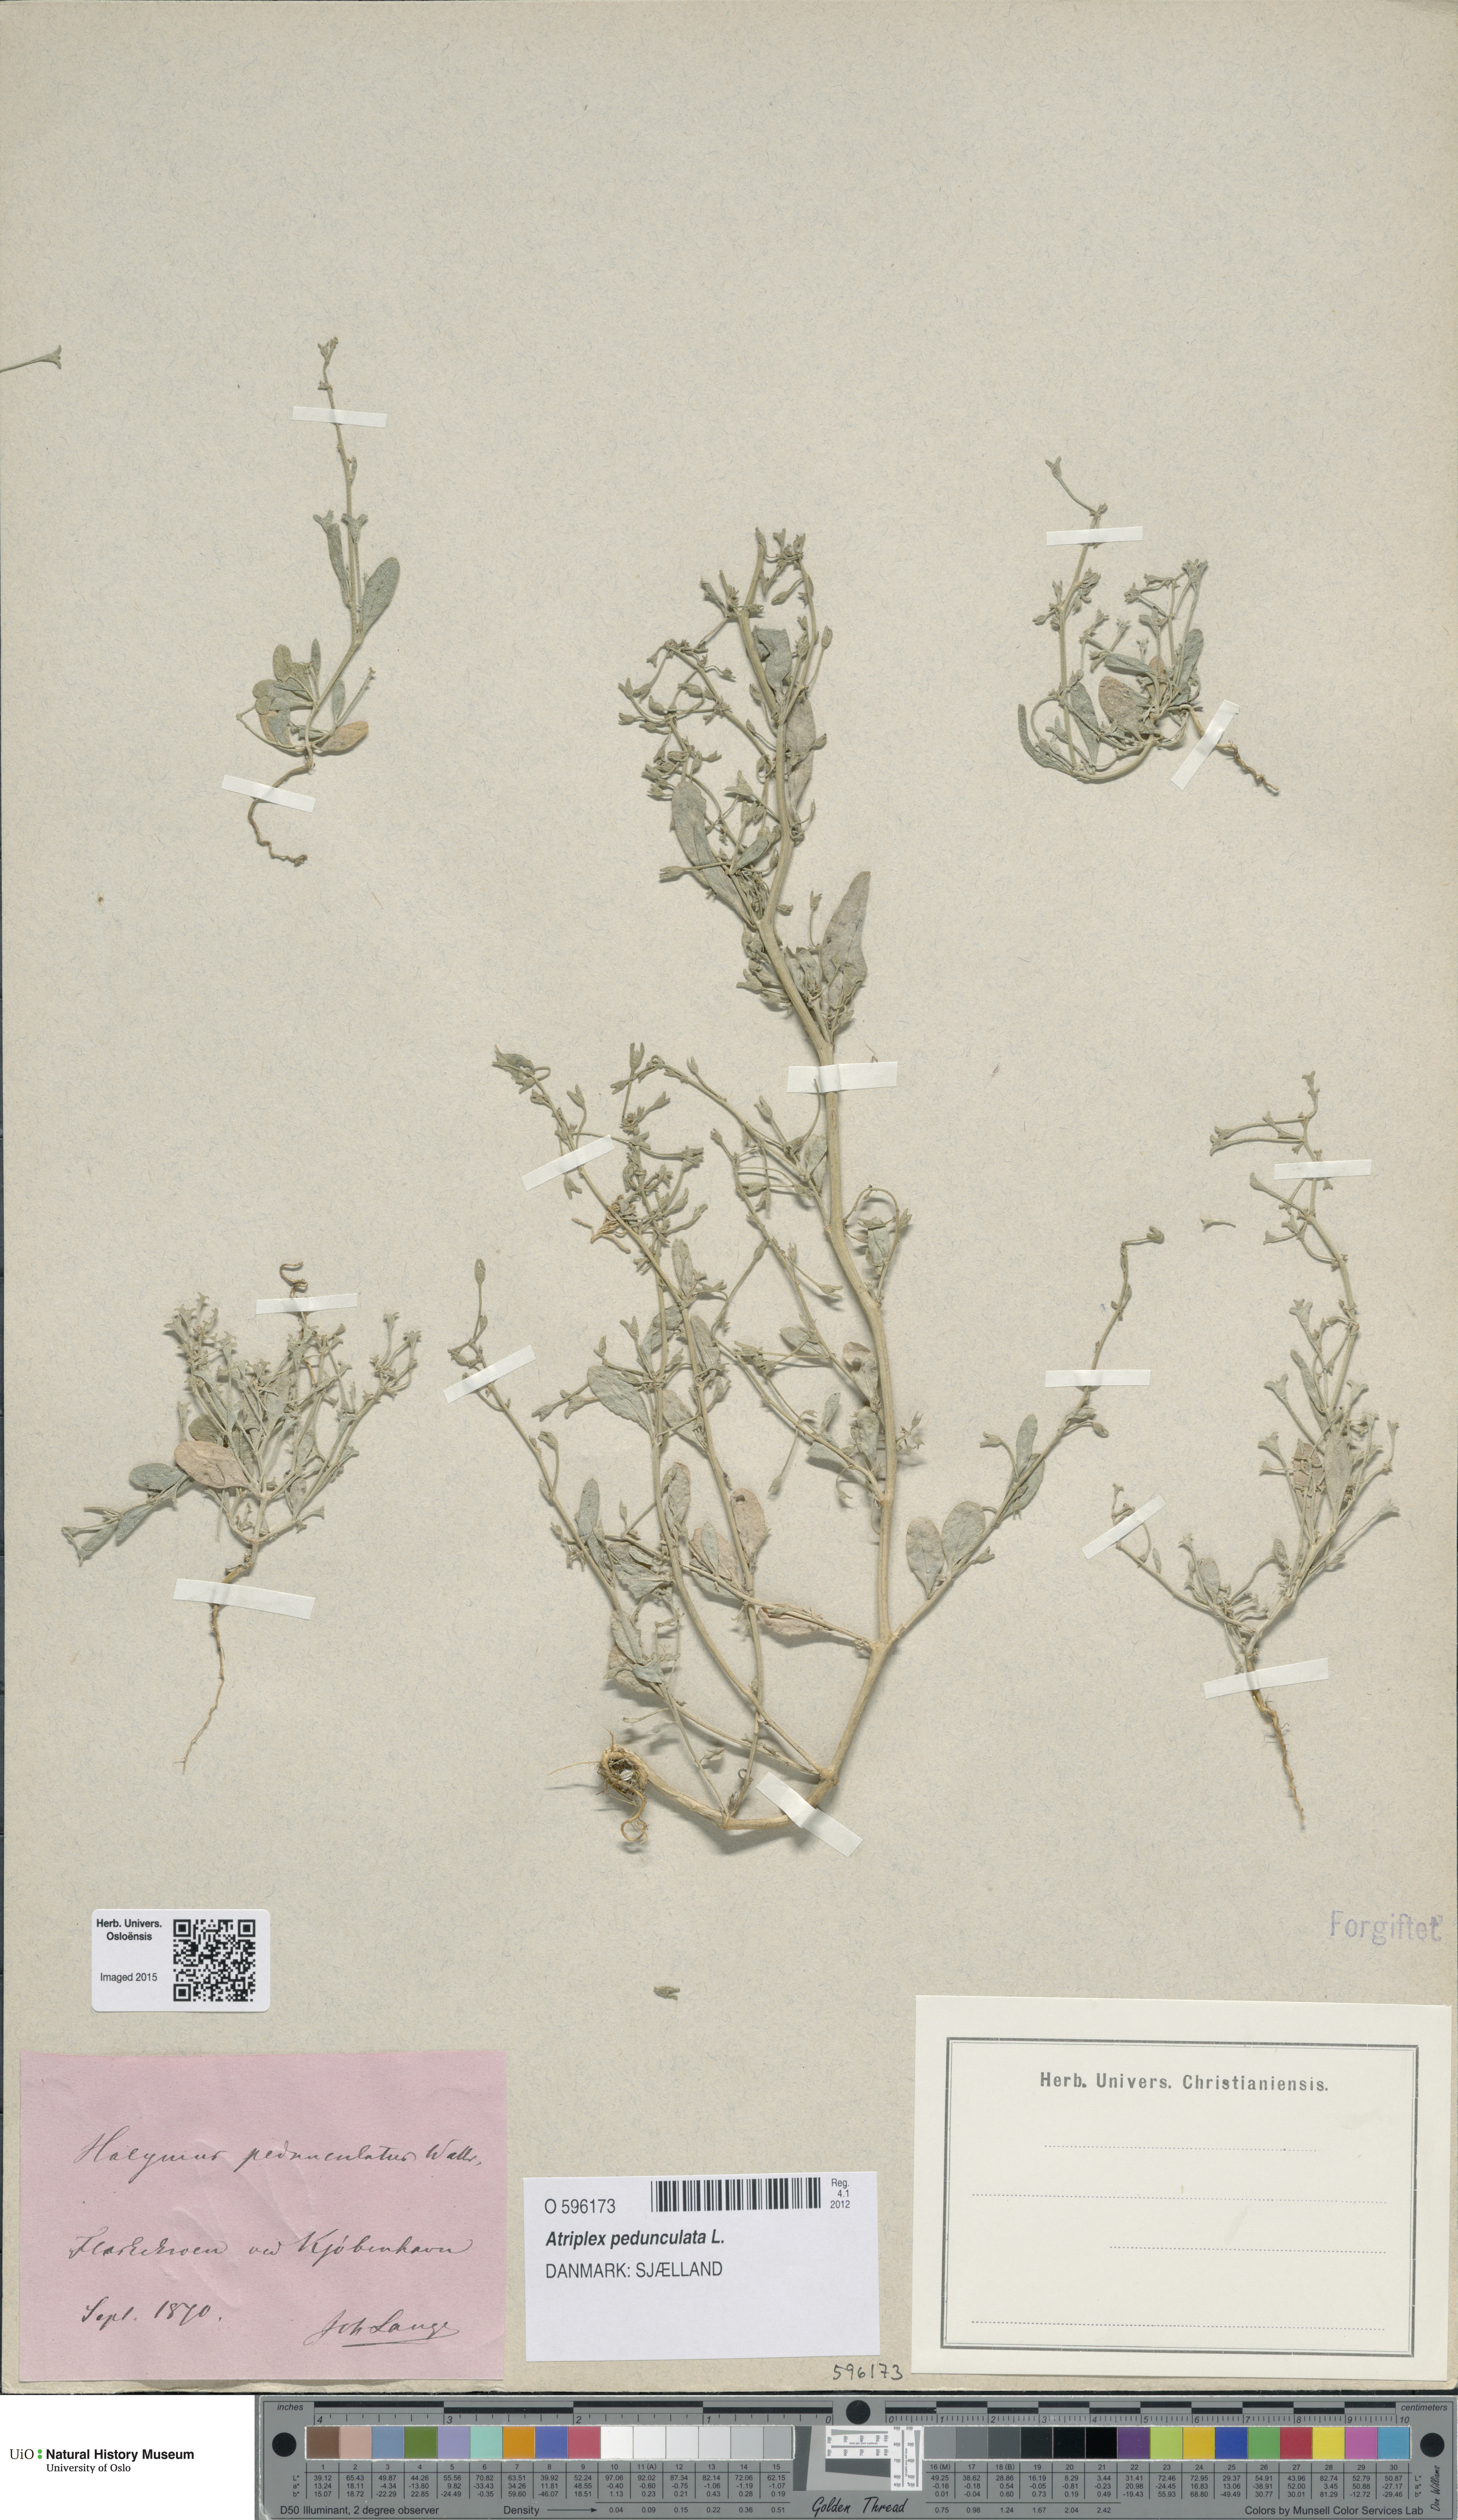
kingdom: Plantae
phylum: Tracheophyta
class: Magnoliopsida
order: Caryophyllales
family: Amaranthaceae
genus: Halimione
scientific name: Halimione pedunculata
